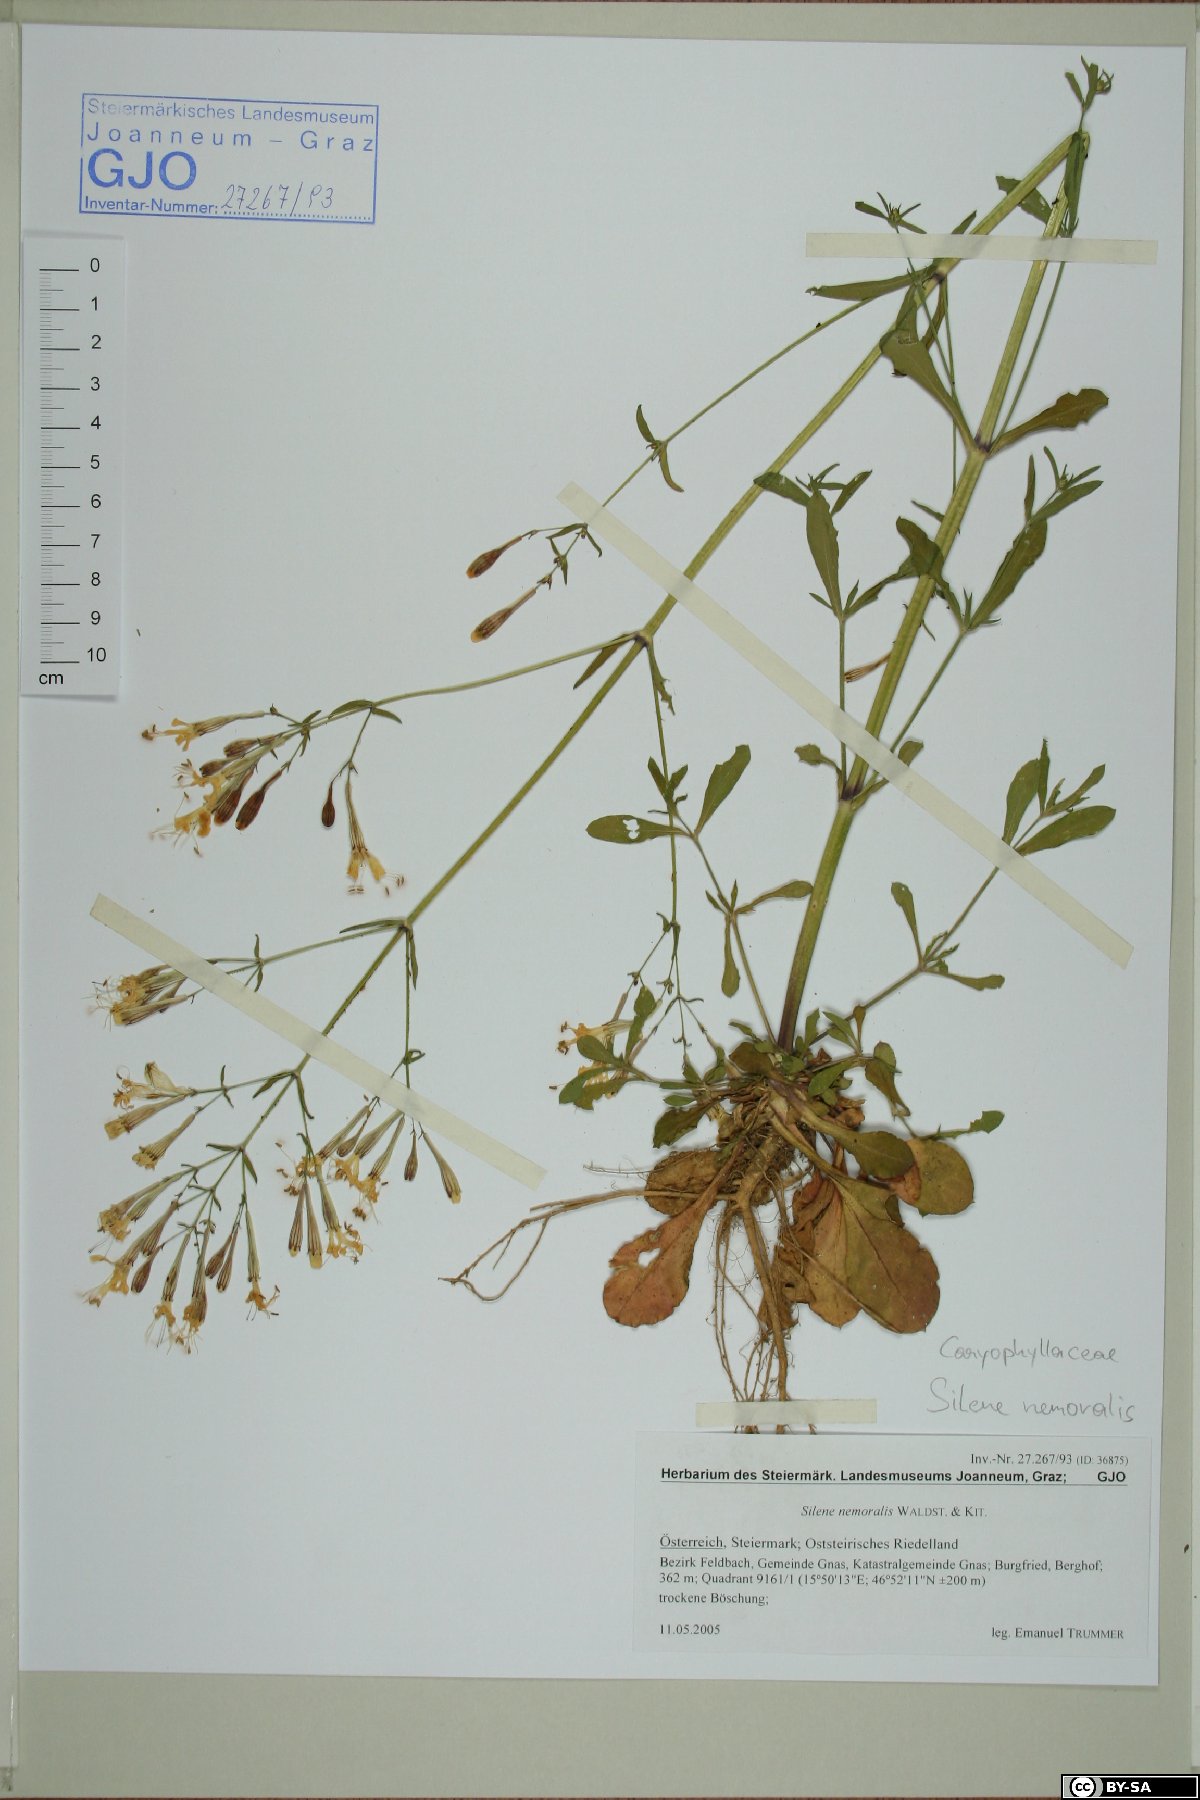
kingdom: Plantae
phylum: Tracheophyta
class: Magnoliopsida
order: Caryophyllales
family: Caryophyllaceae
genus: Silene
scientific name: Silene nemoralis
